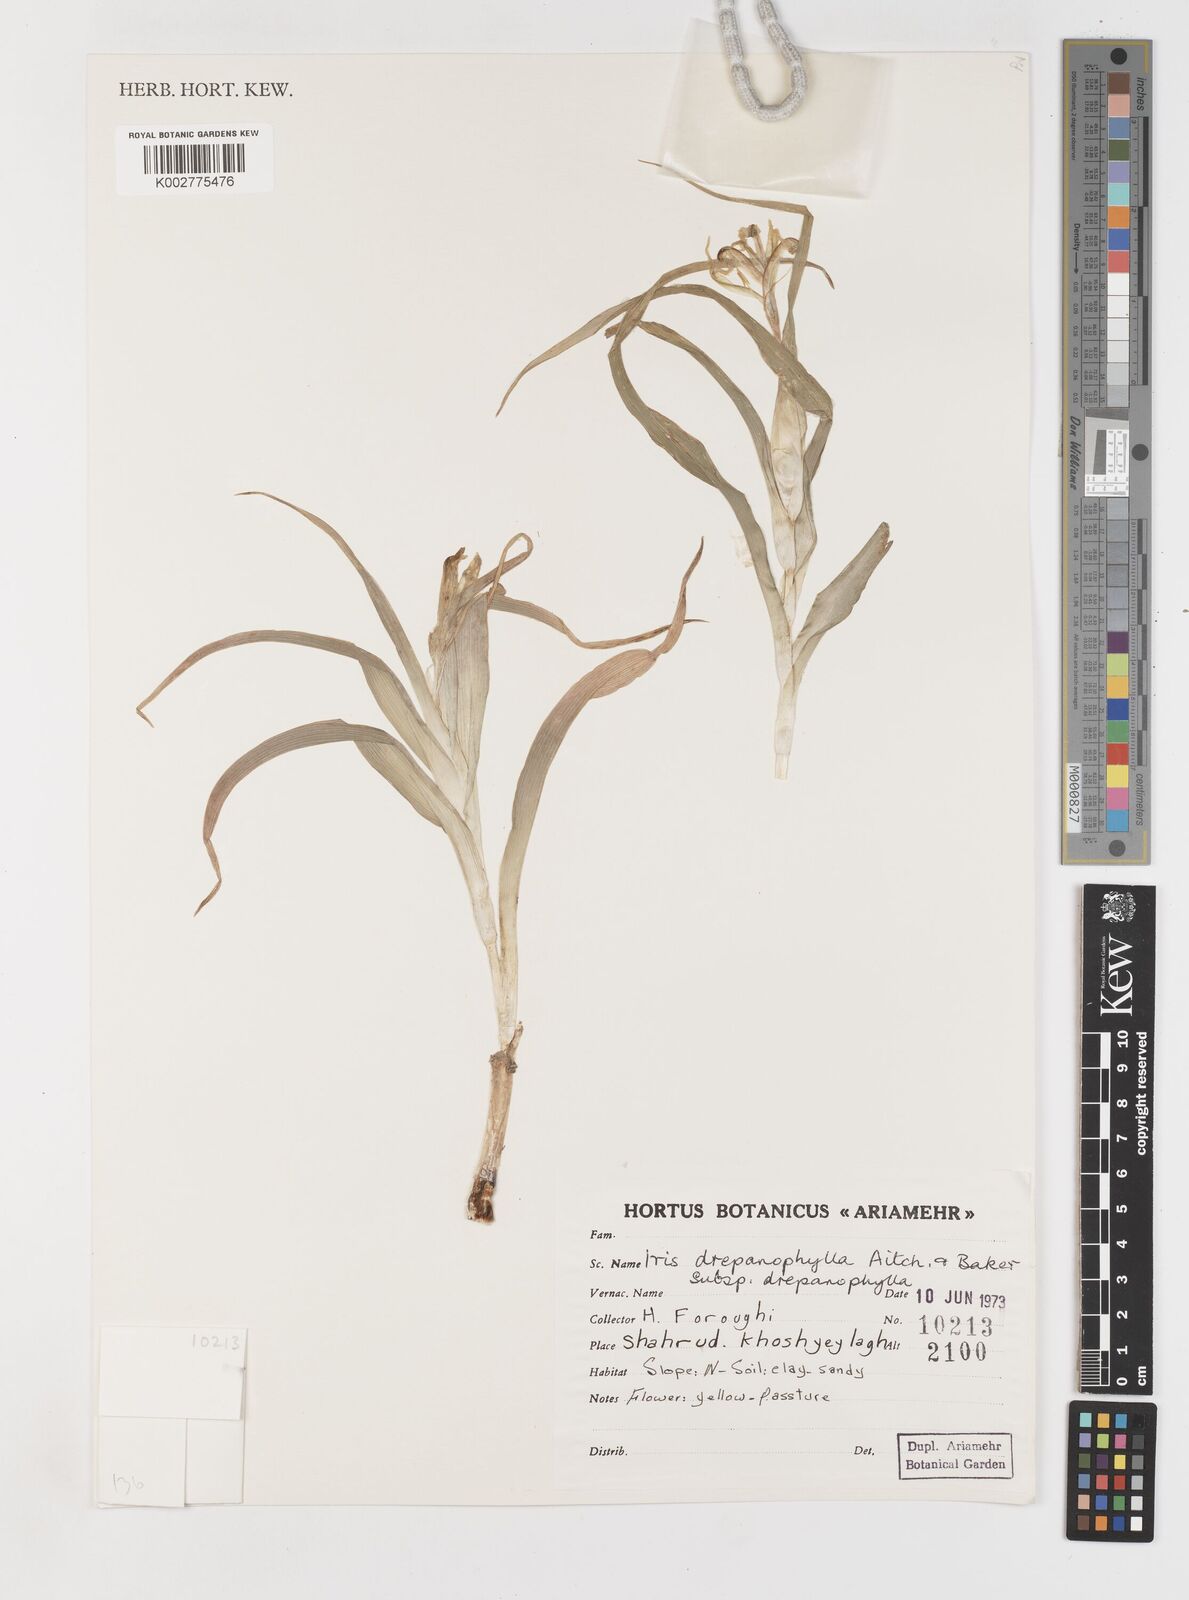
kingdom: Plantae
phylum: Tracheophyta
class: Liliopsida
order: Asparagales
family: Iridaceae
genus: Iris
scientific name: Iris drepanophylla
